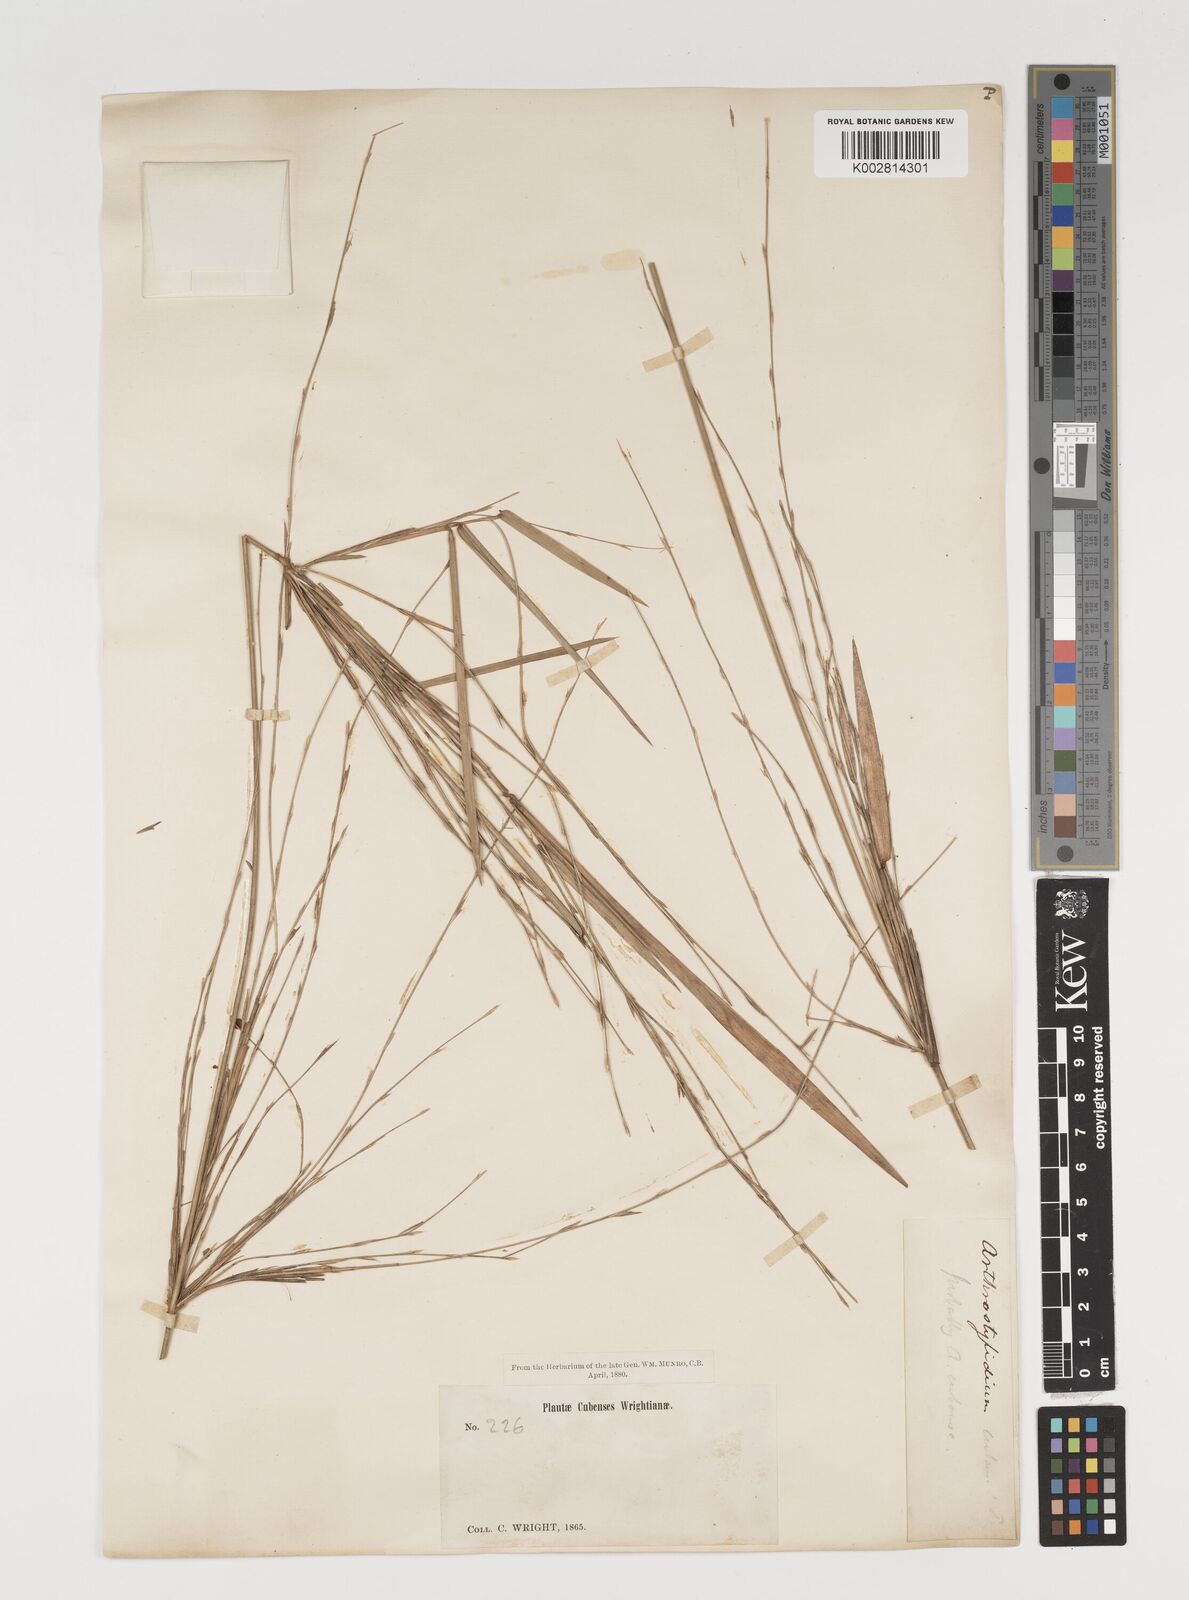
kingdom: Plantae
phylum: Tracheophyta
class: Liliopsida
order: Poales
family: Poaceae
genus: Arthrostylidium
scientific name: Arthrostylidium cubense
